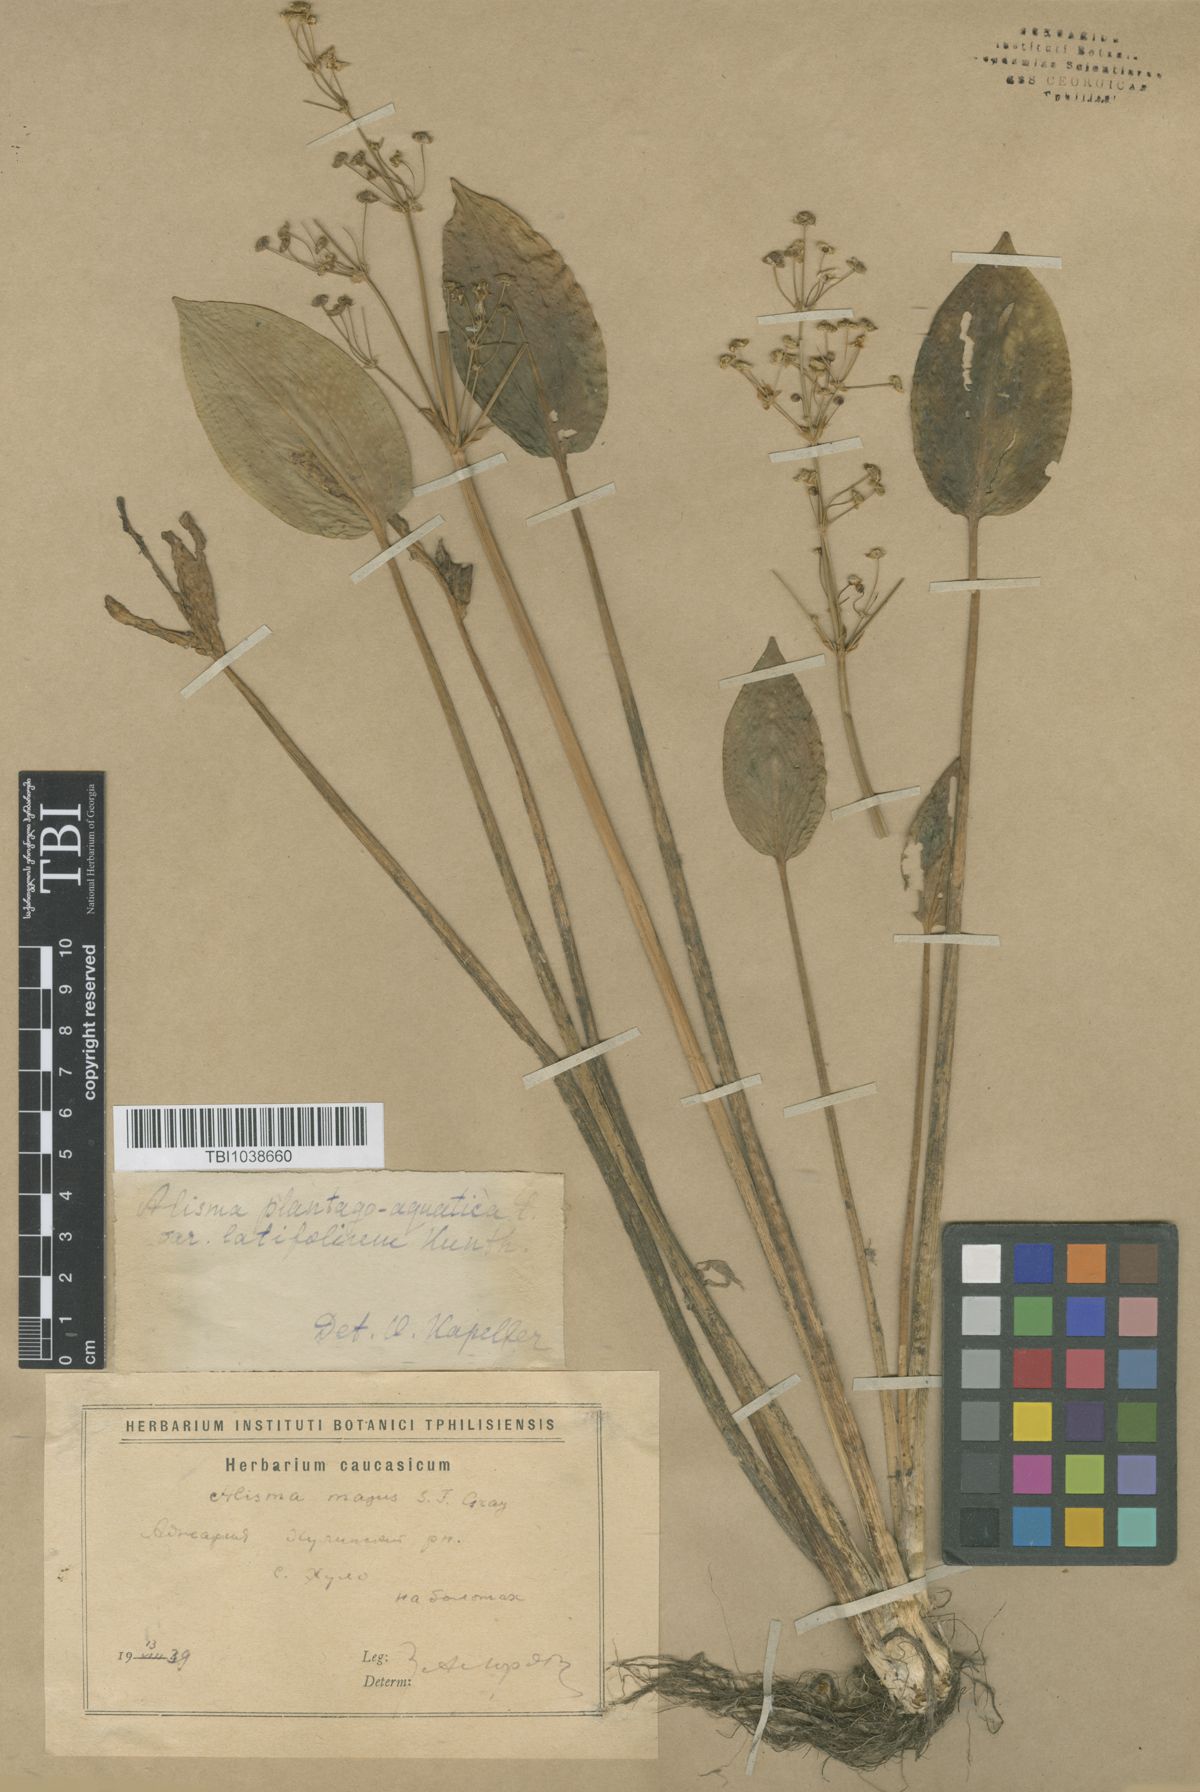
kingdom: Plantae
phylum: Tracheophyta
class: Liliopsida
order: Alismatales
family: Alismataceae
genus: Alisma
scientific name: Alisma plantago-aquatica
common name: Water-plantain
